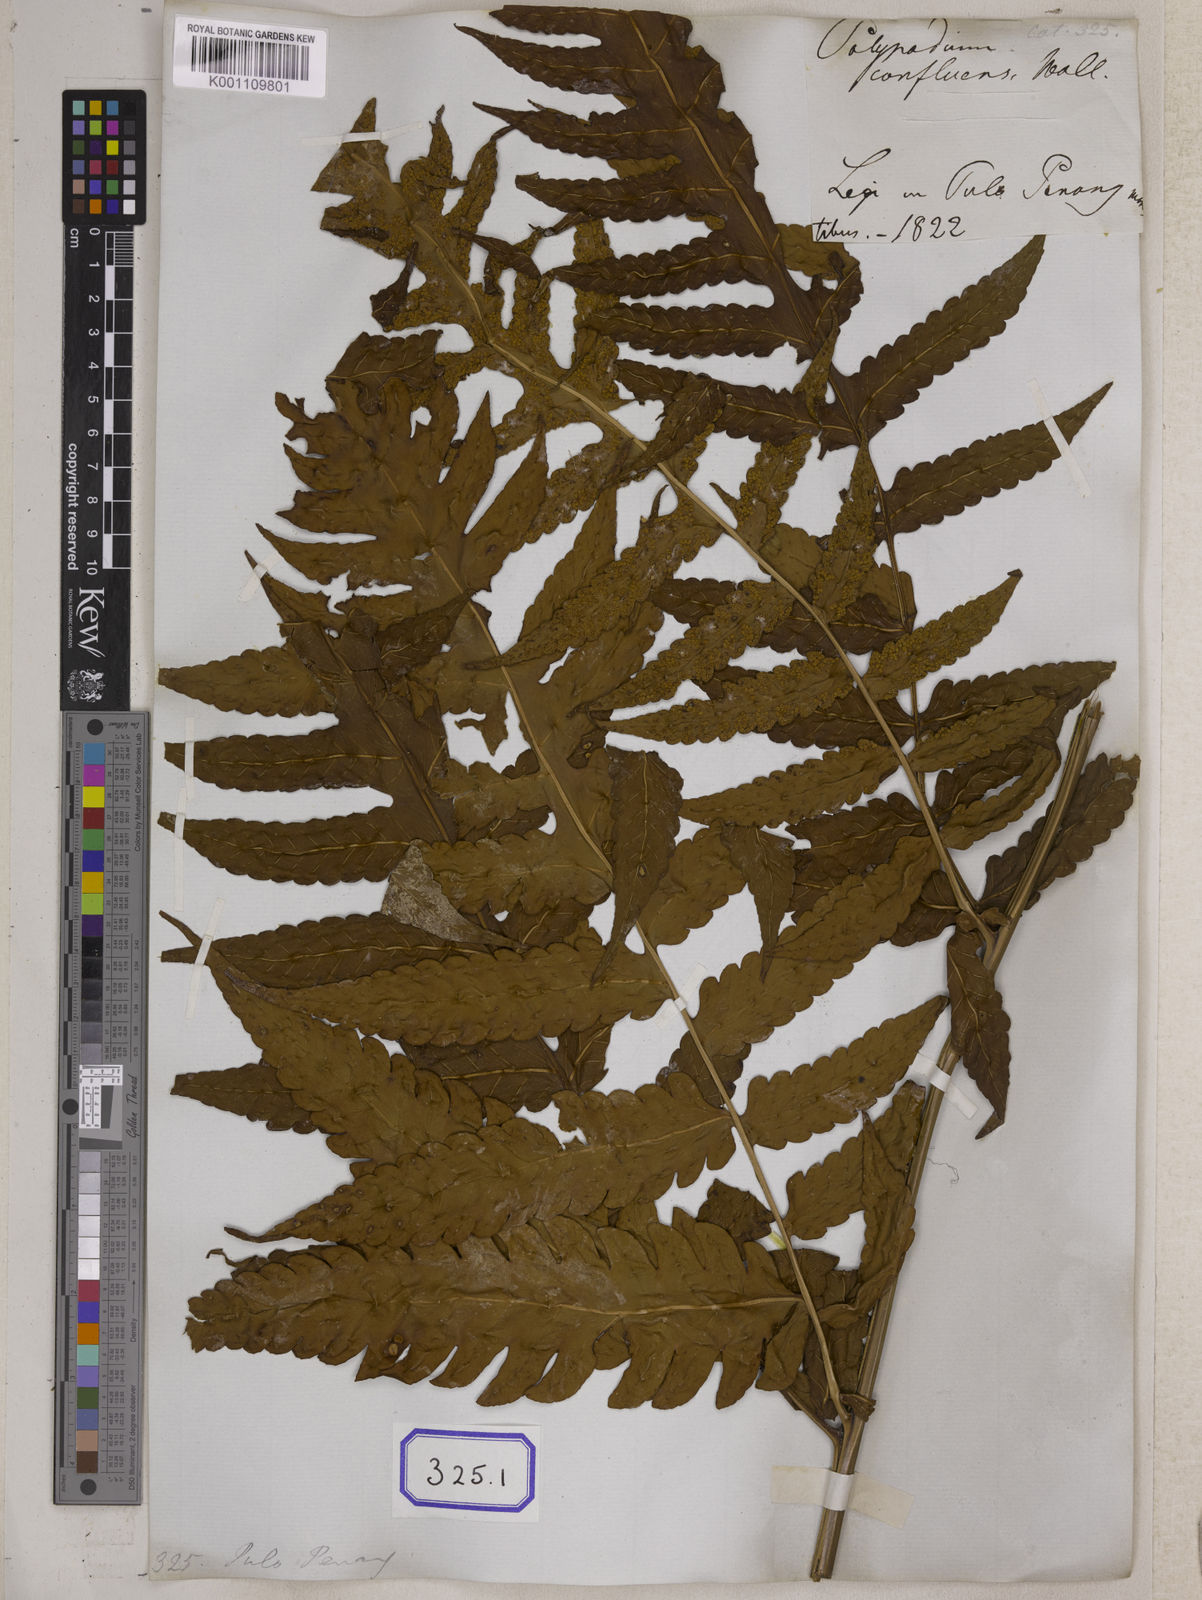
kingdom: Plantae
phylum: Tracheophyta
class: Polypodiopsida
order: Polypodiales
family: Dryopteridaceae
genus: Pleocnemia
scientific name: Pleocnemia irregularis
